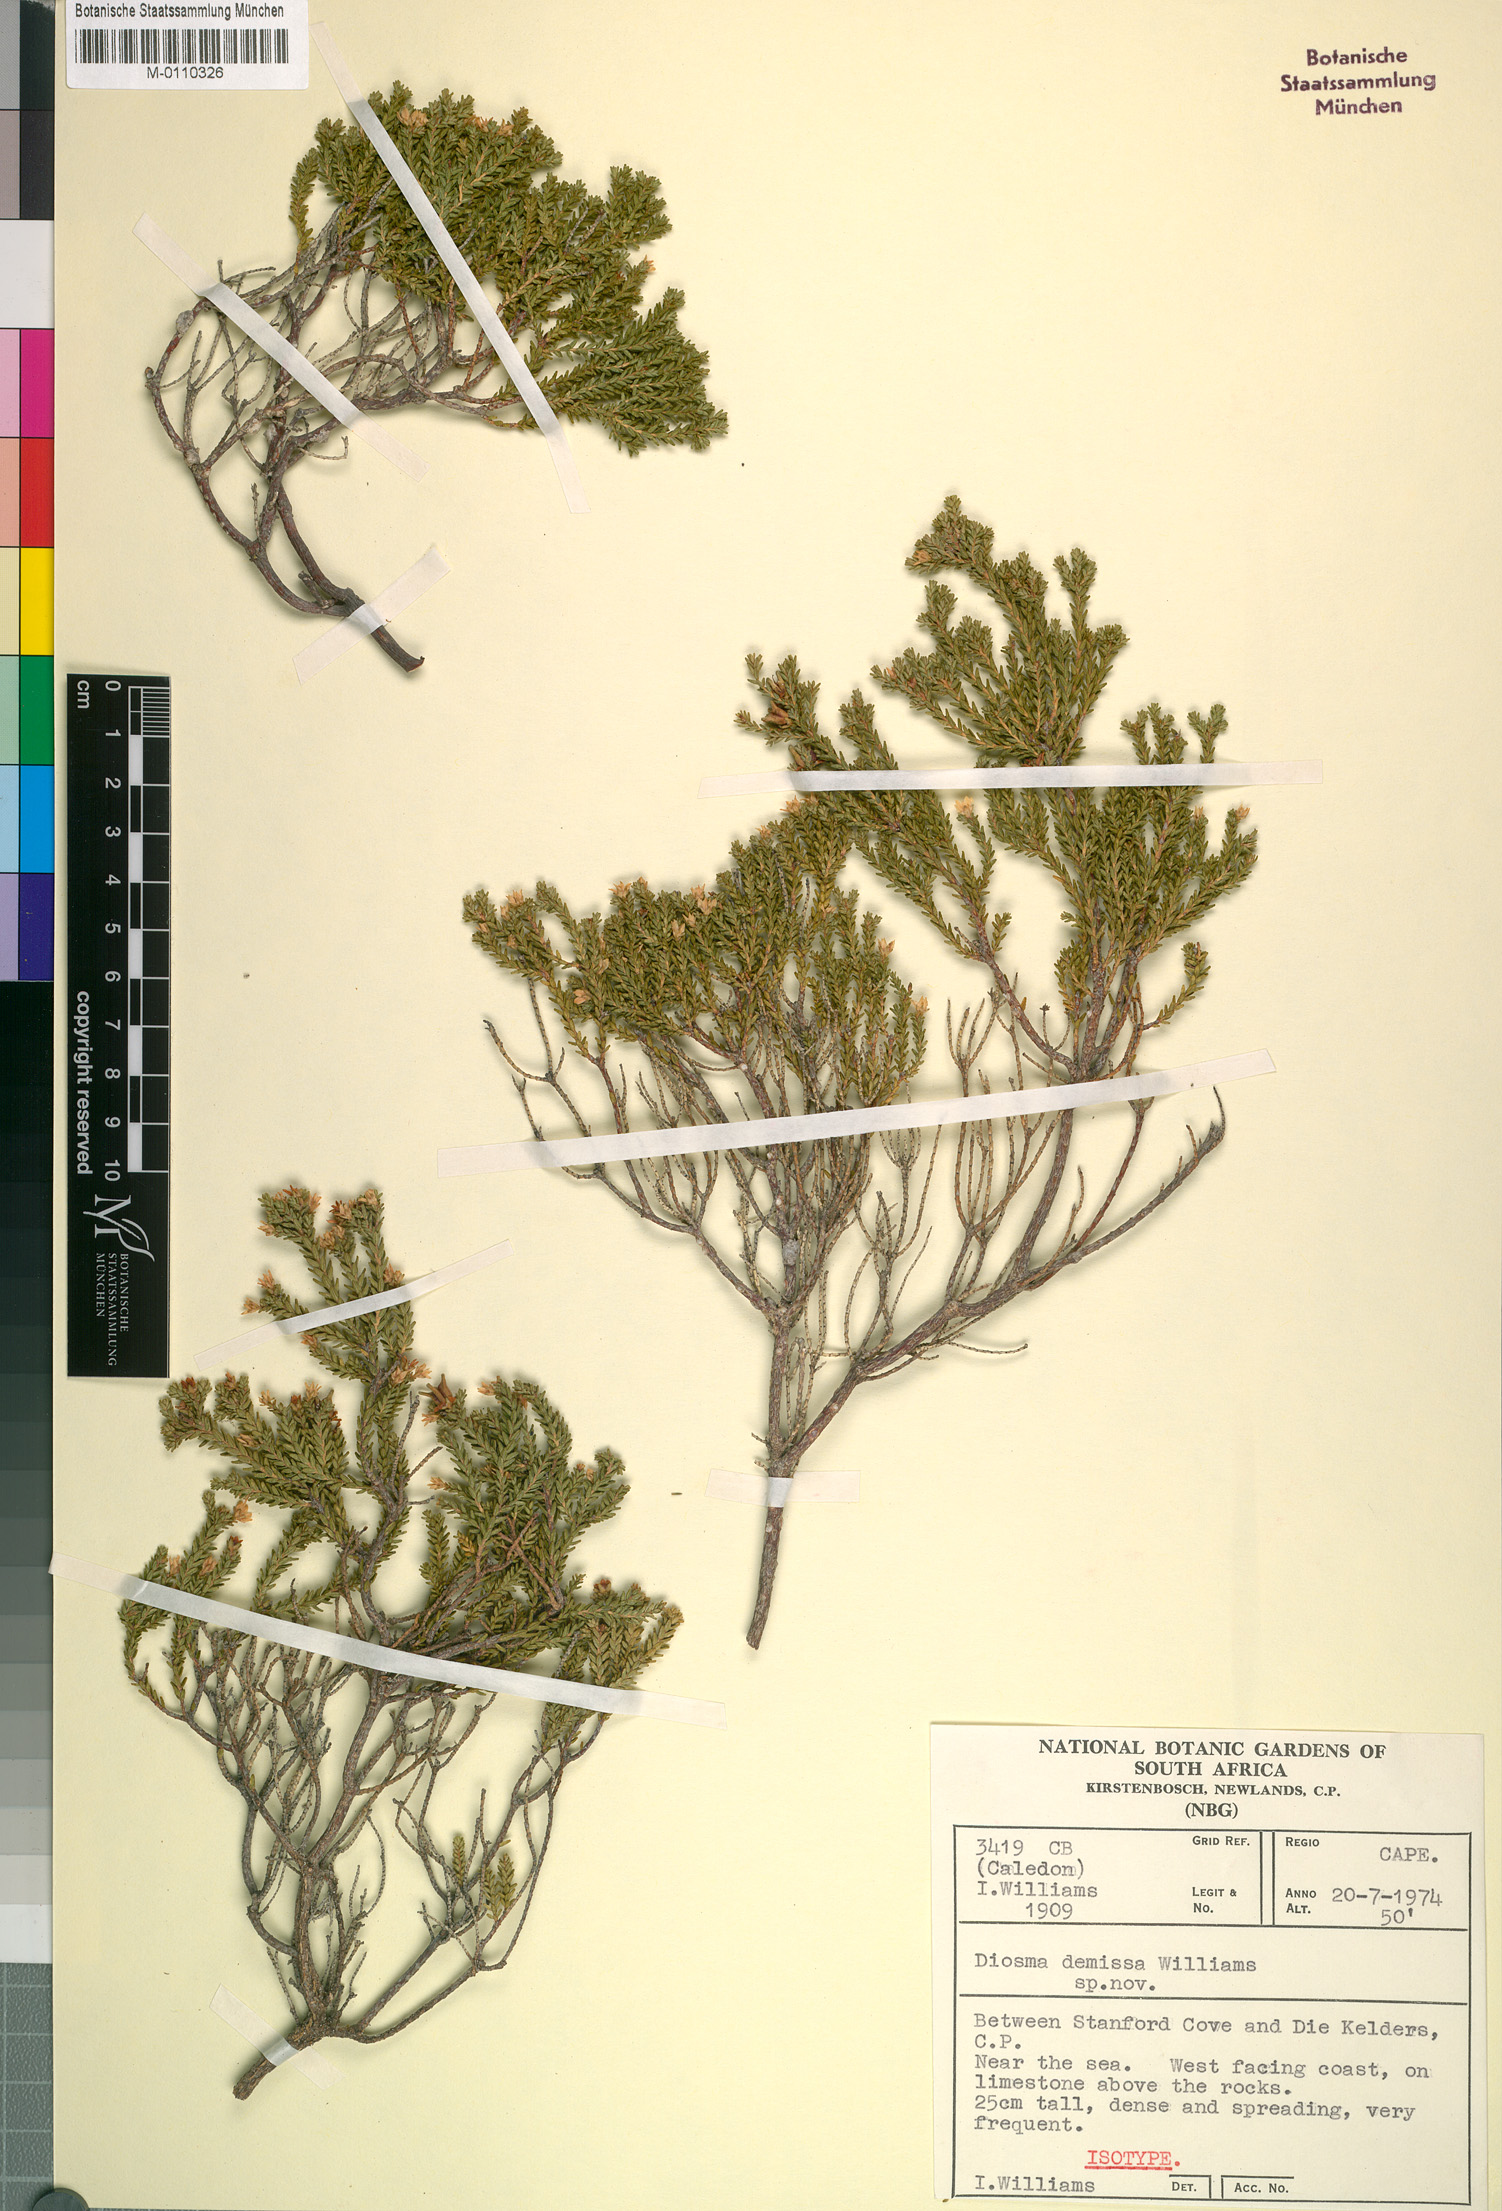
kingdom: Plantae
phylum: Tracheophyta
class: Magnoliopsida
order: Sapindales
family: Rutaceae
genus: Diosma
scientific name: Diosma demissa
